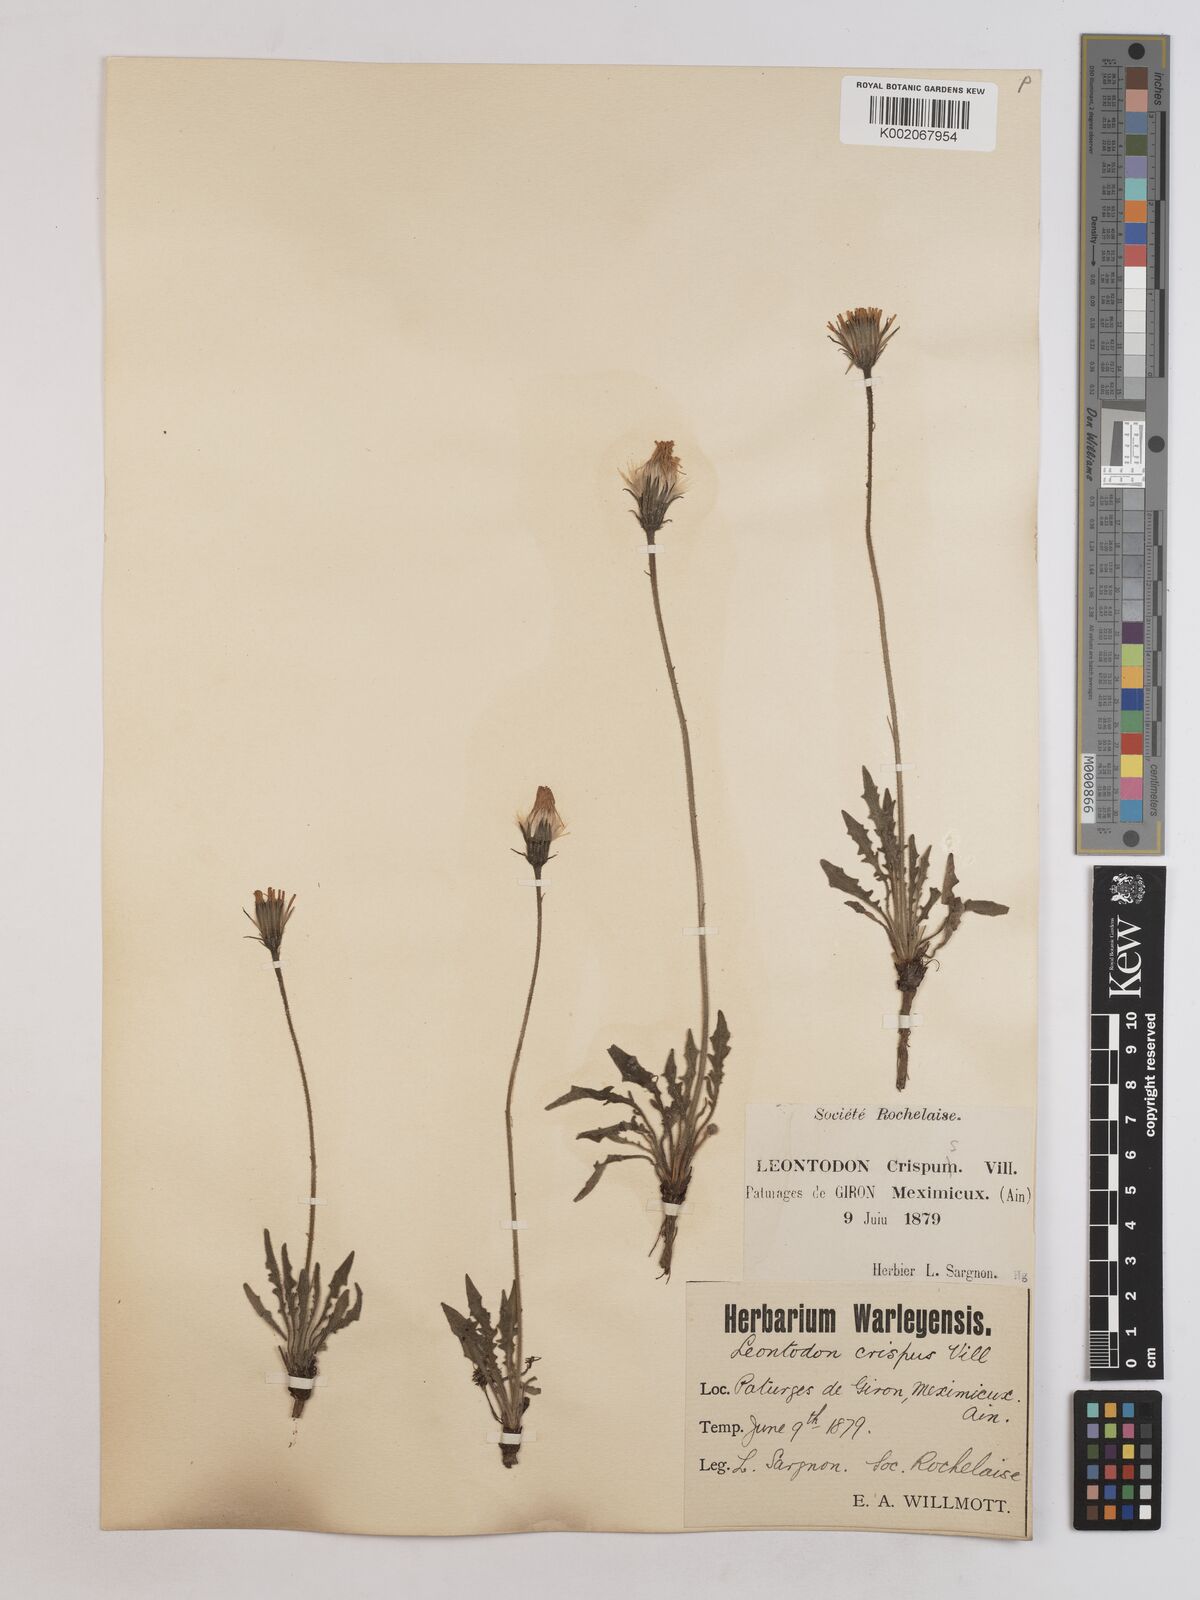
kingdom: Plantae
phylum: Tracheophyta
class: Magnoliopsida
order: Asterales
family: Asteraceae
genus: Leontodon
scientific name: Leontodon crispus
